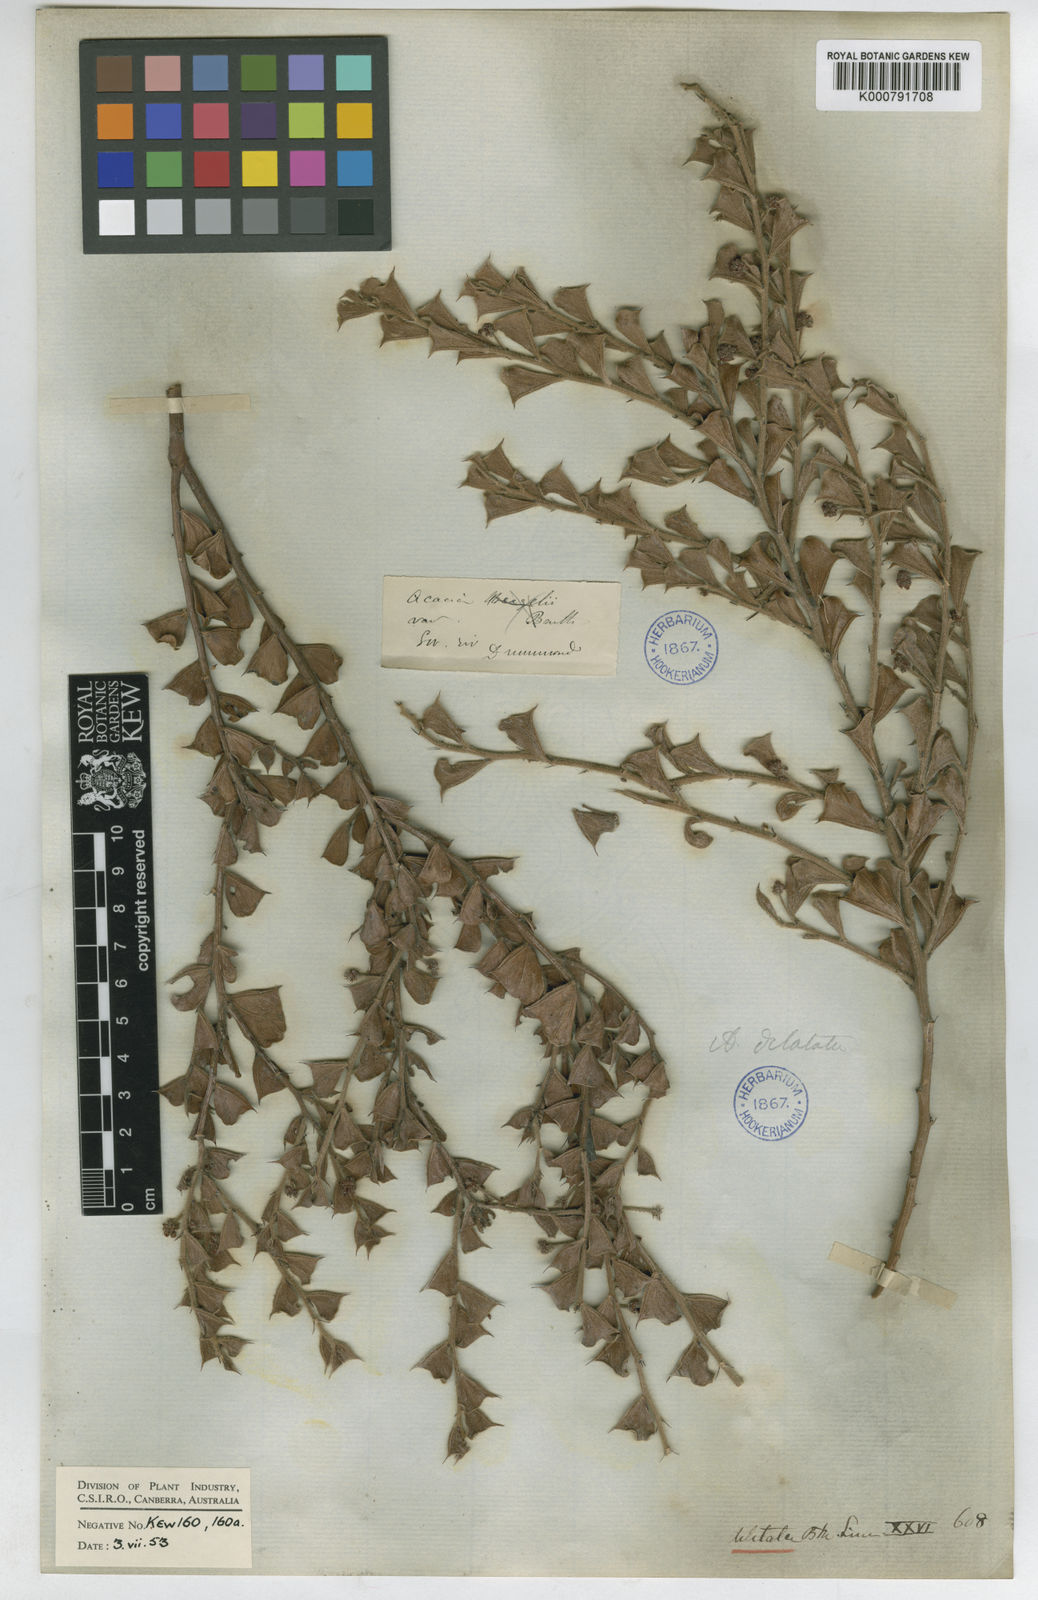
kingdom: Plantae
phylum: Tracheophyta
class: Magnoliopsida
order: Fabales
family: Fabaceae
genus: Acacia
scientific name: Acacia dilatata
